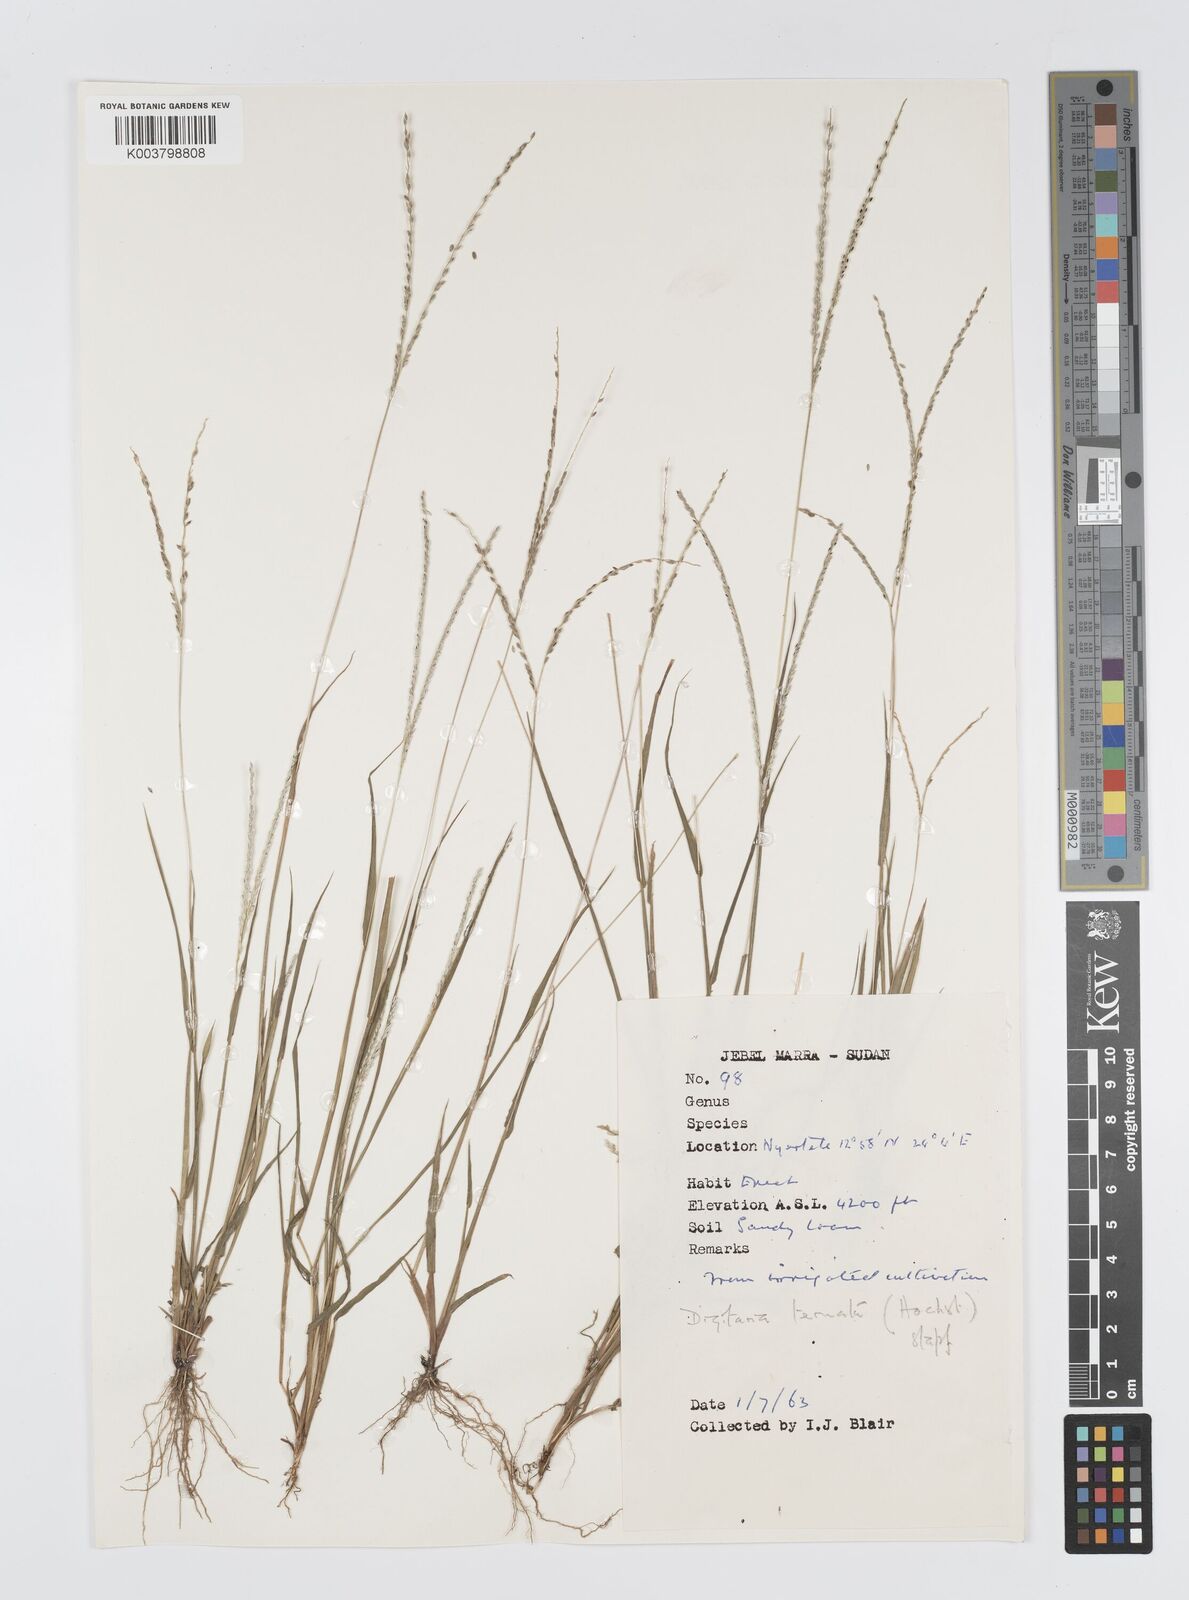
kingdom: Plantae
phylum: Tracheophyta
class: Liliopsida
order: Poales
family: Poaceae
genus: Digitaria
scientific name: Digitaria ternata
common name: Blackseed crabgrass
